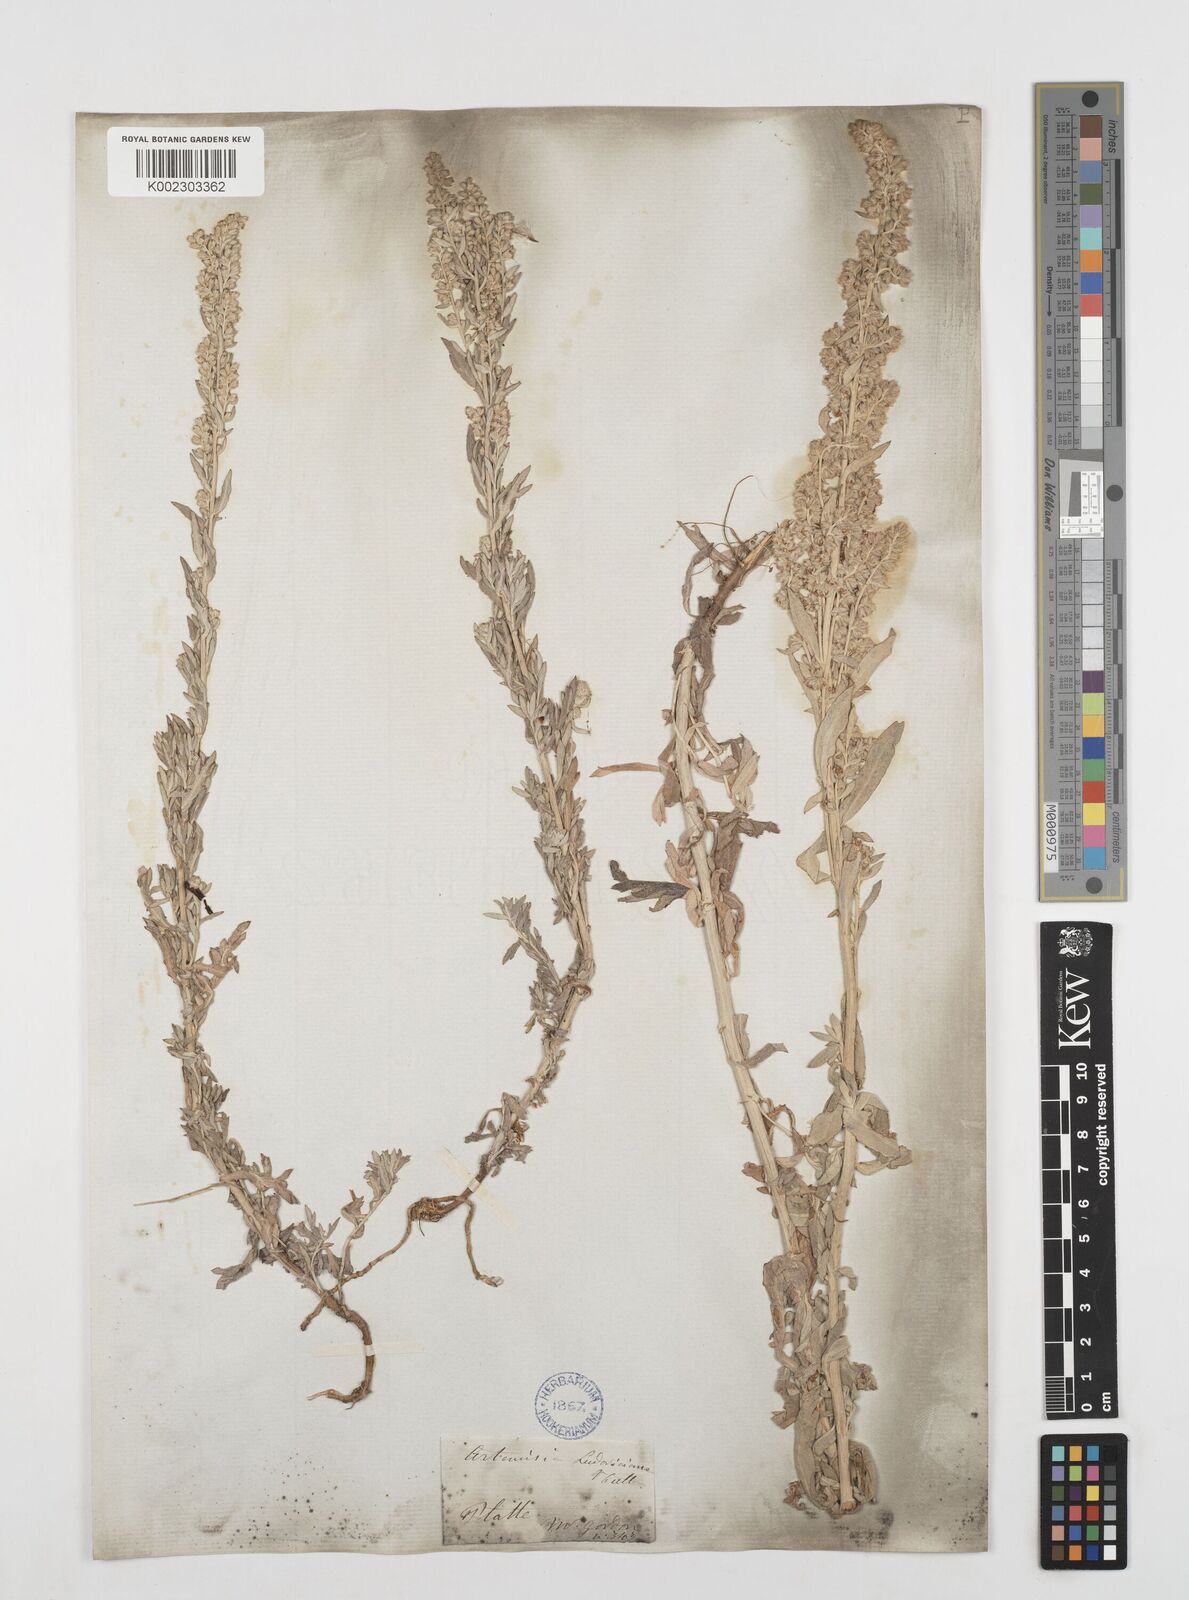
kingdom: Plantae
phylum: Tracheophyta
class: Magnoliopsida
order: Asterales
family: Asteraceae
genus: Artemisia
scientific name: Artemisia
